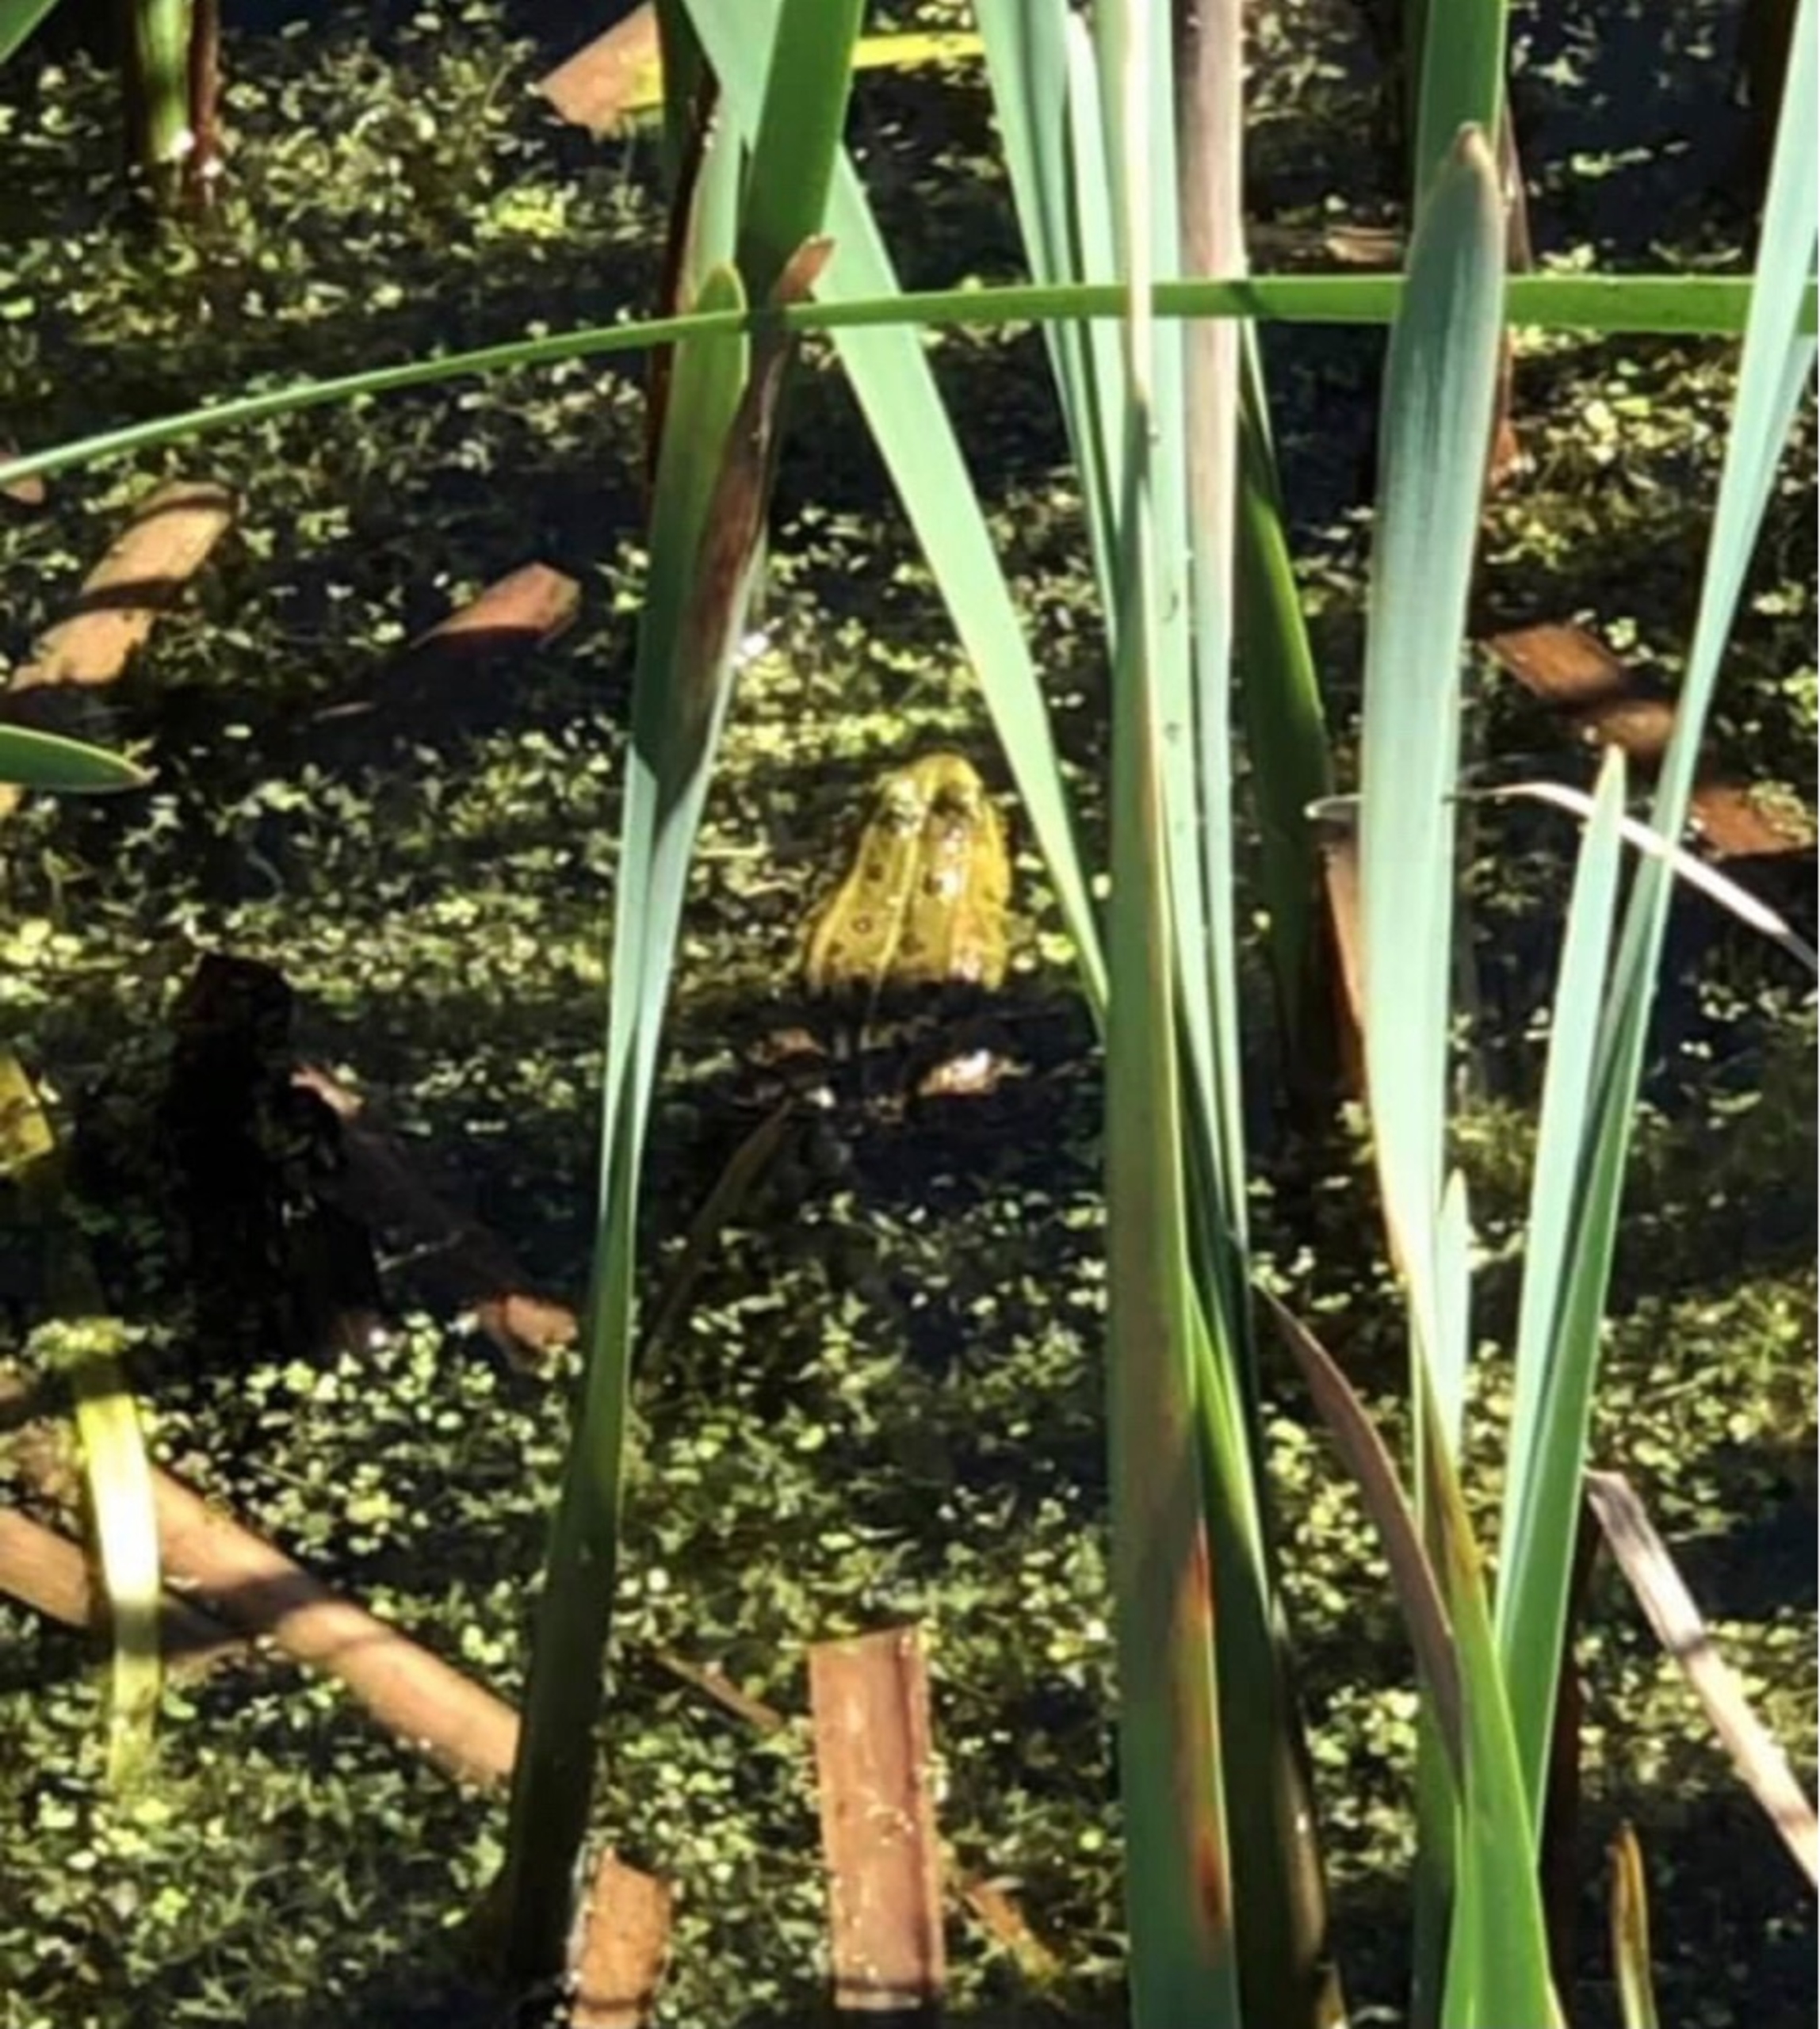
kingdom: Animalia
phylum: Chordata
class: Amphibia
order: Anura
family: Ranidae
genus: Pelophylax
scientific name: Pelophylax lessonae
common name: Grøn frø
